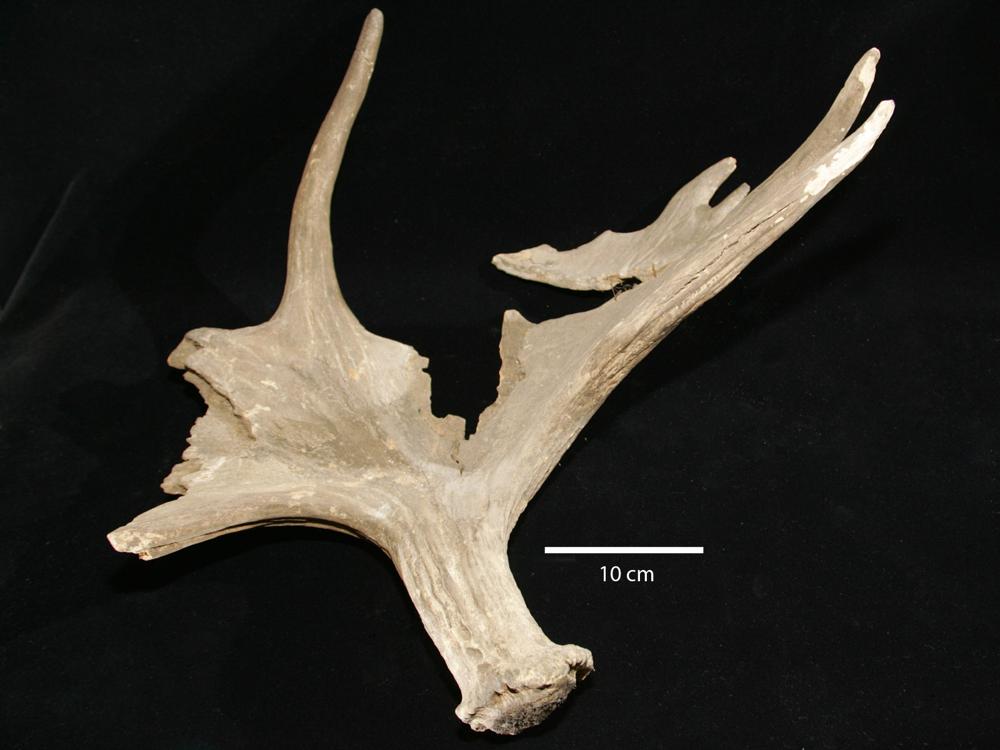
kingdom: Animalia
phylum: Chordata
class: Mammalia
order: Artiodactyla
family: Cervidae
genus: Alces
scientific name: Alces alces
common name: Moose
